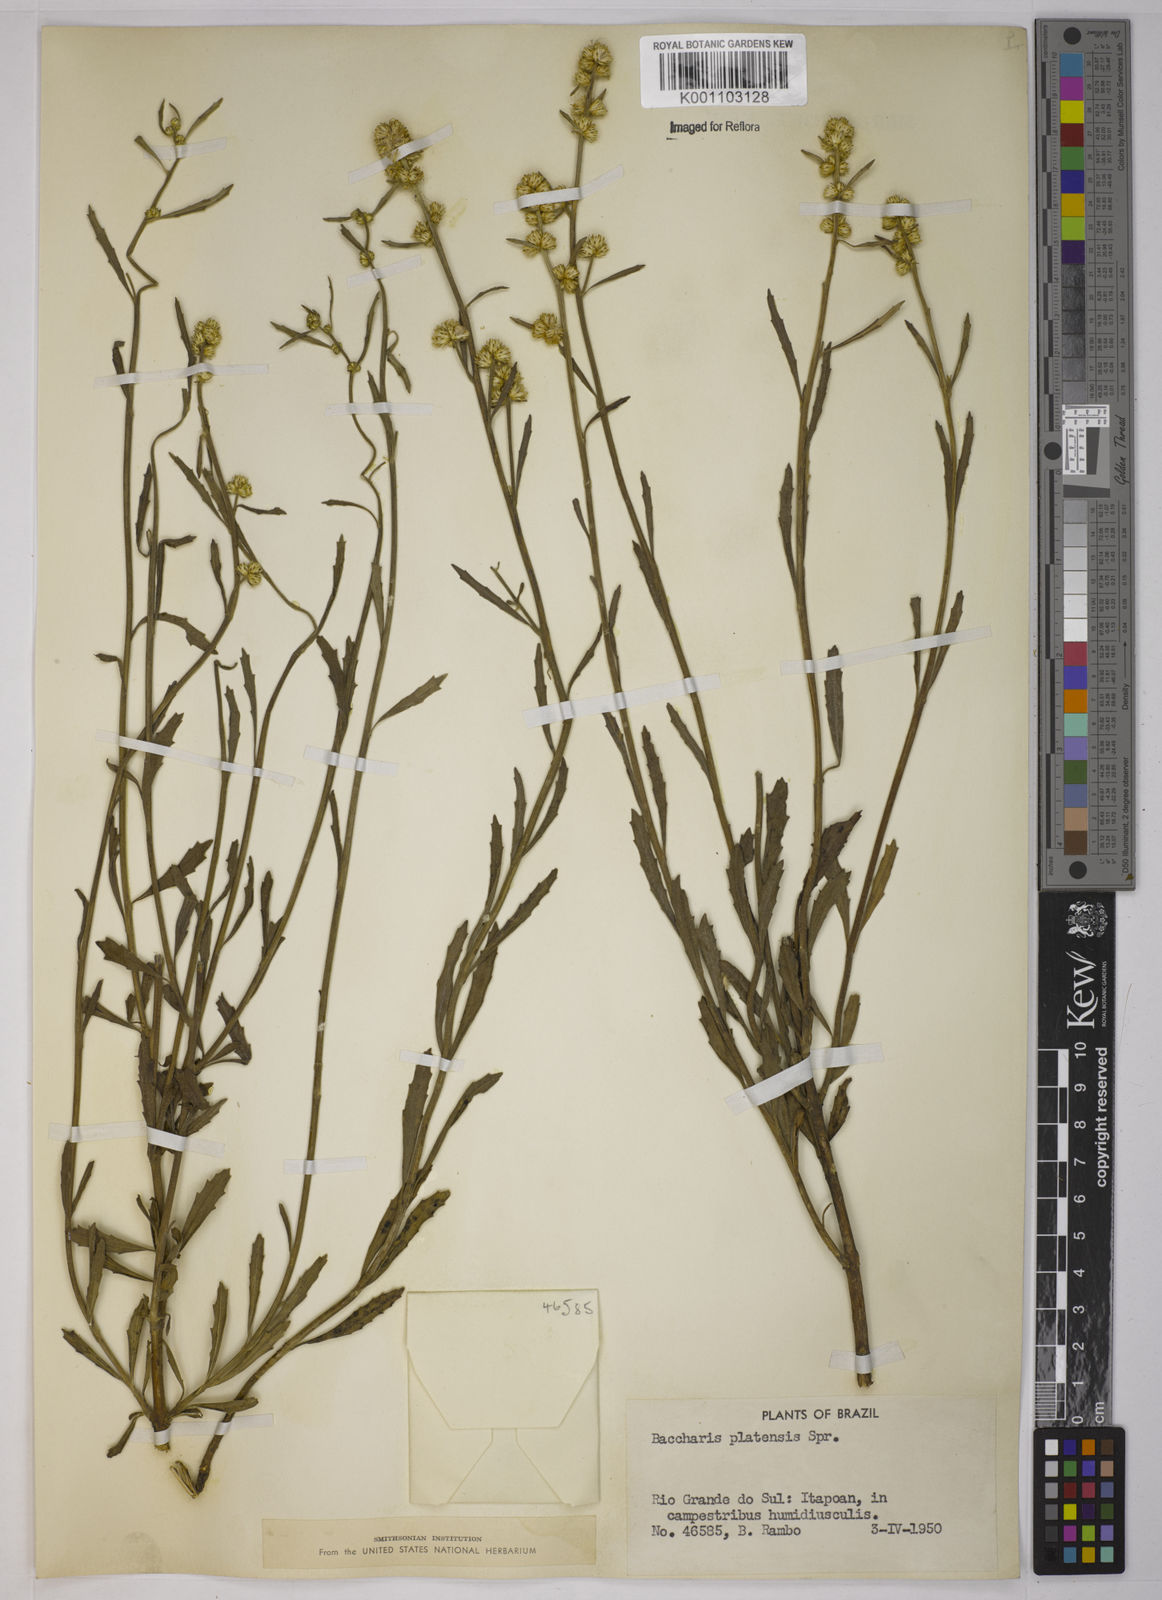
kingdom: Plantae
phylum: Tracheophyta
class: Magnoliopsida
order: Asterales
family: Asteraceae
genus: Baccharis
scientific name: Baccharis hieronymi
